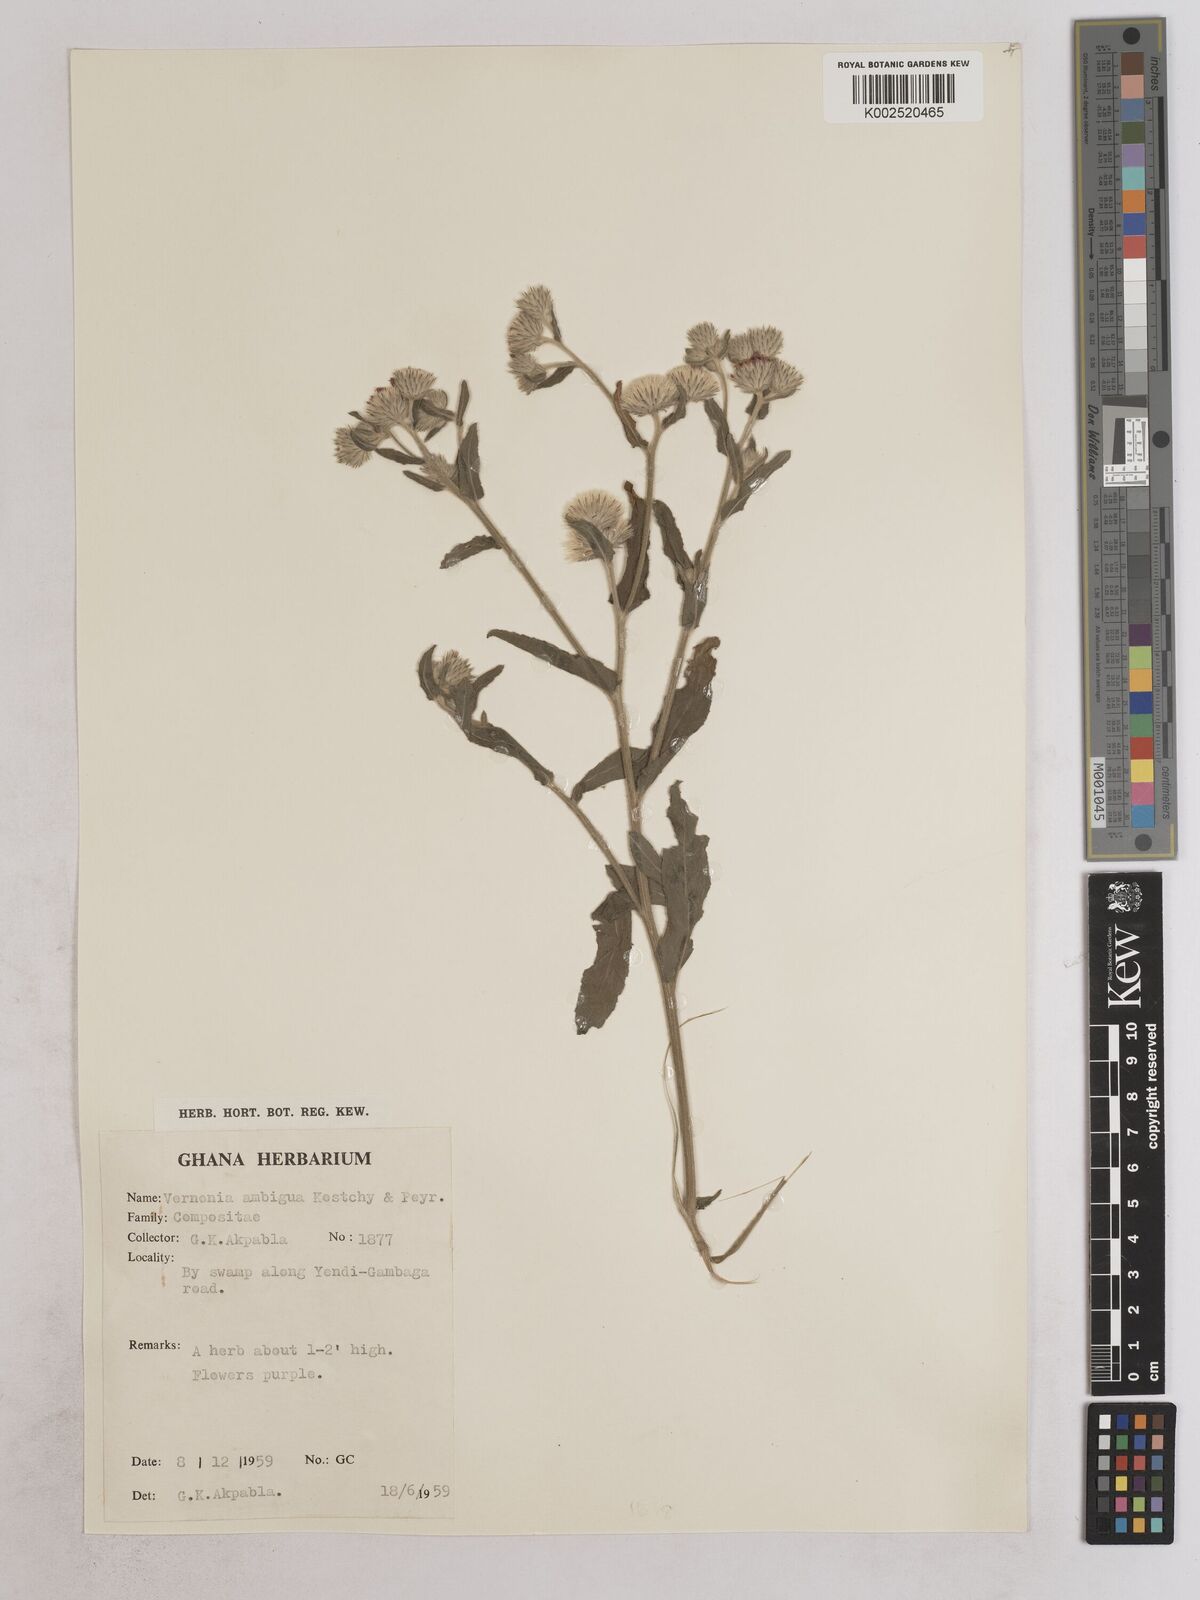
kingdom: Plantae
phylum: Tracheophyta
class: Magnoliopsida
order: Asterales
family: Asteraceae
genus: Vernoniastrum
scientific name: Vernoniastrum ambiguum
